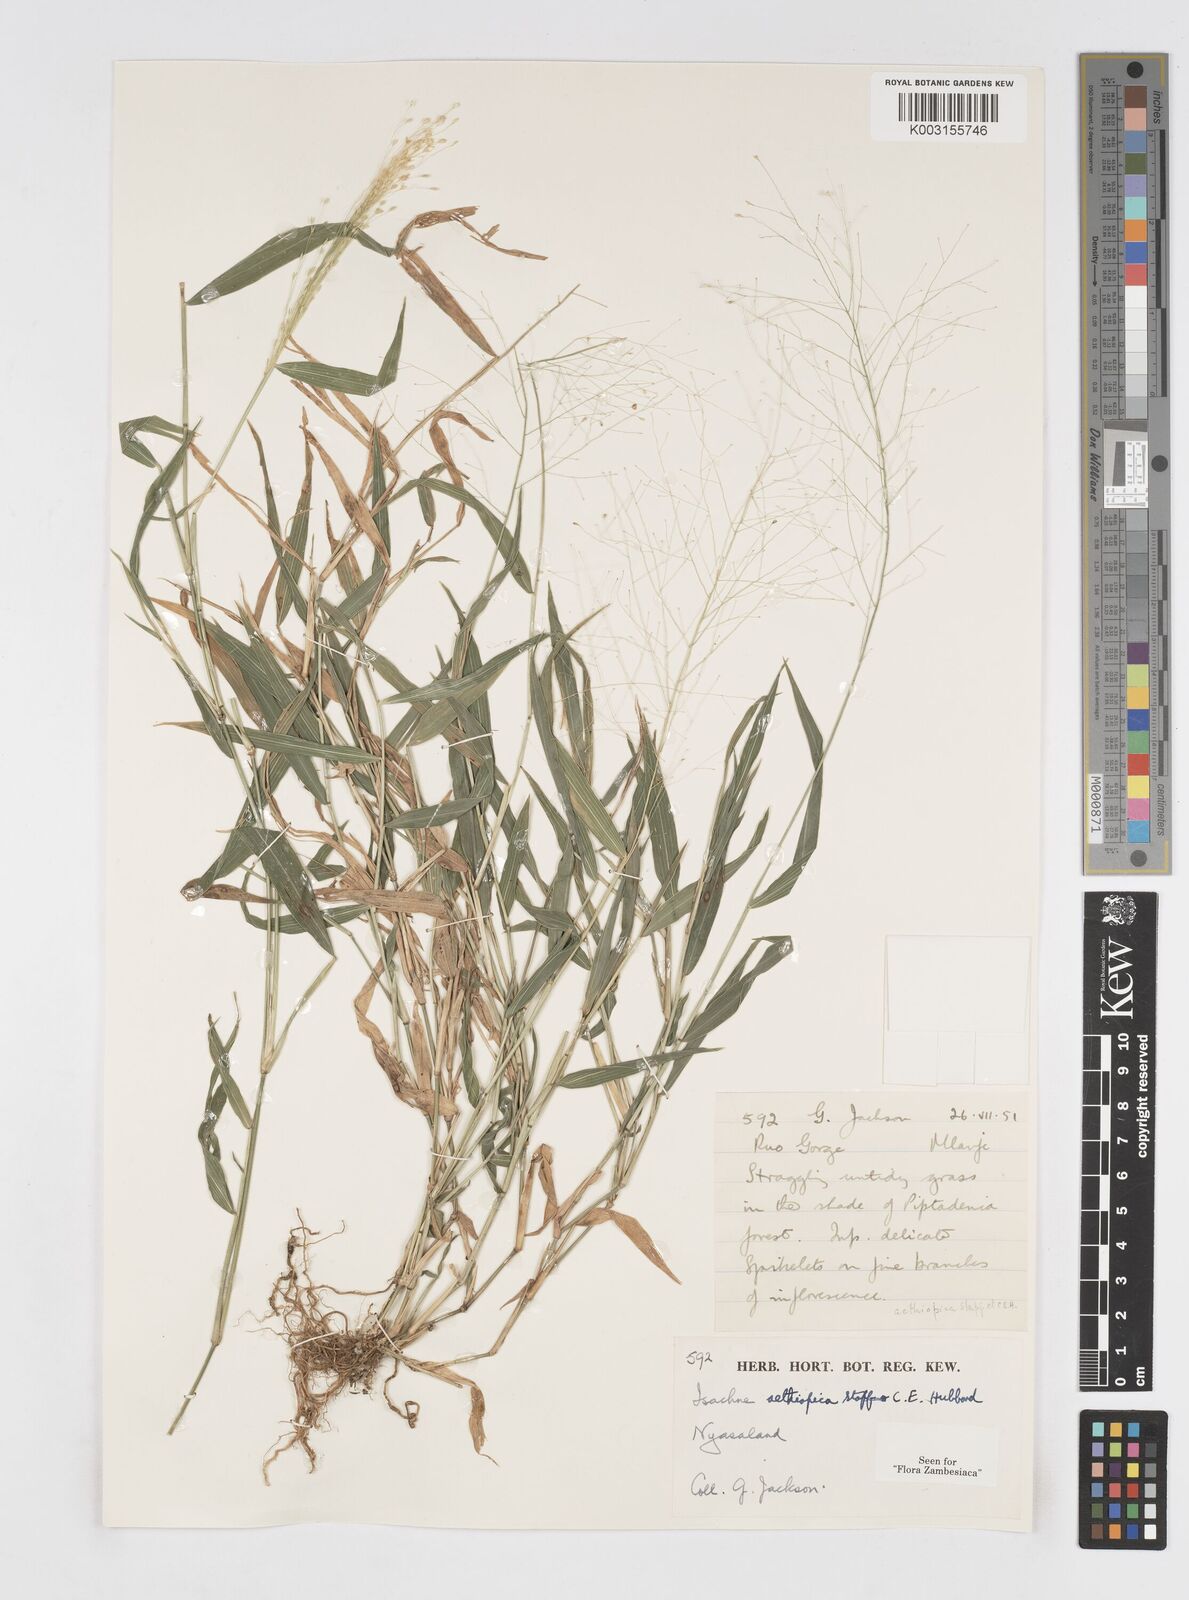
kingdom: Plantae
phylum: Tracheophyta
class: Liliopsida
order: Poales
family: Poaceae
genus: Isachne
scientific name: Isachne mauritiana
